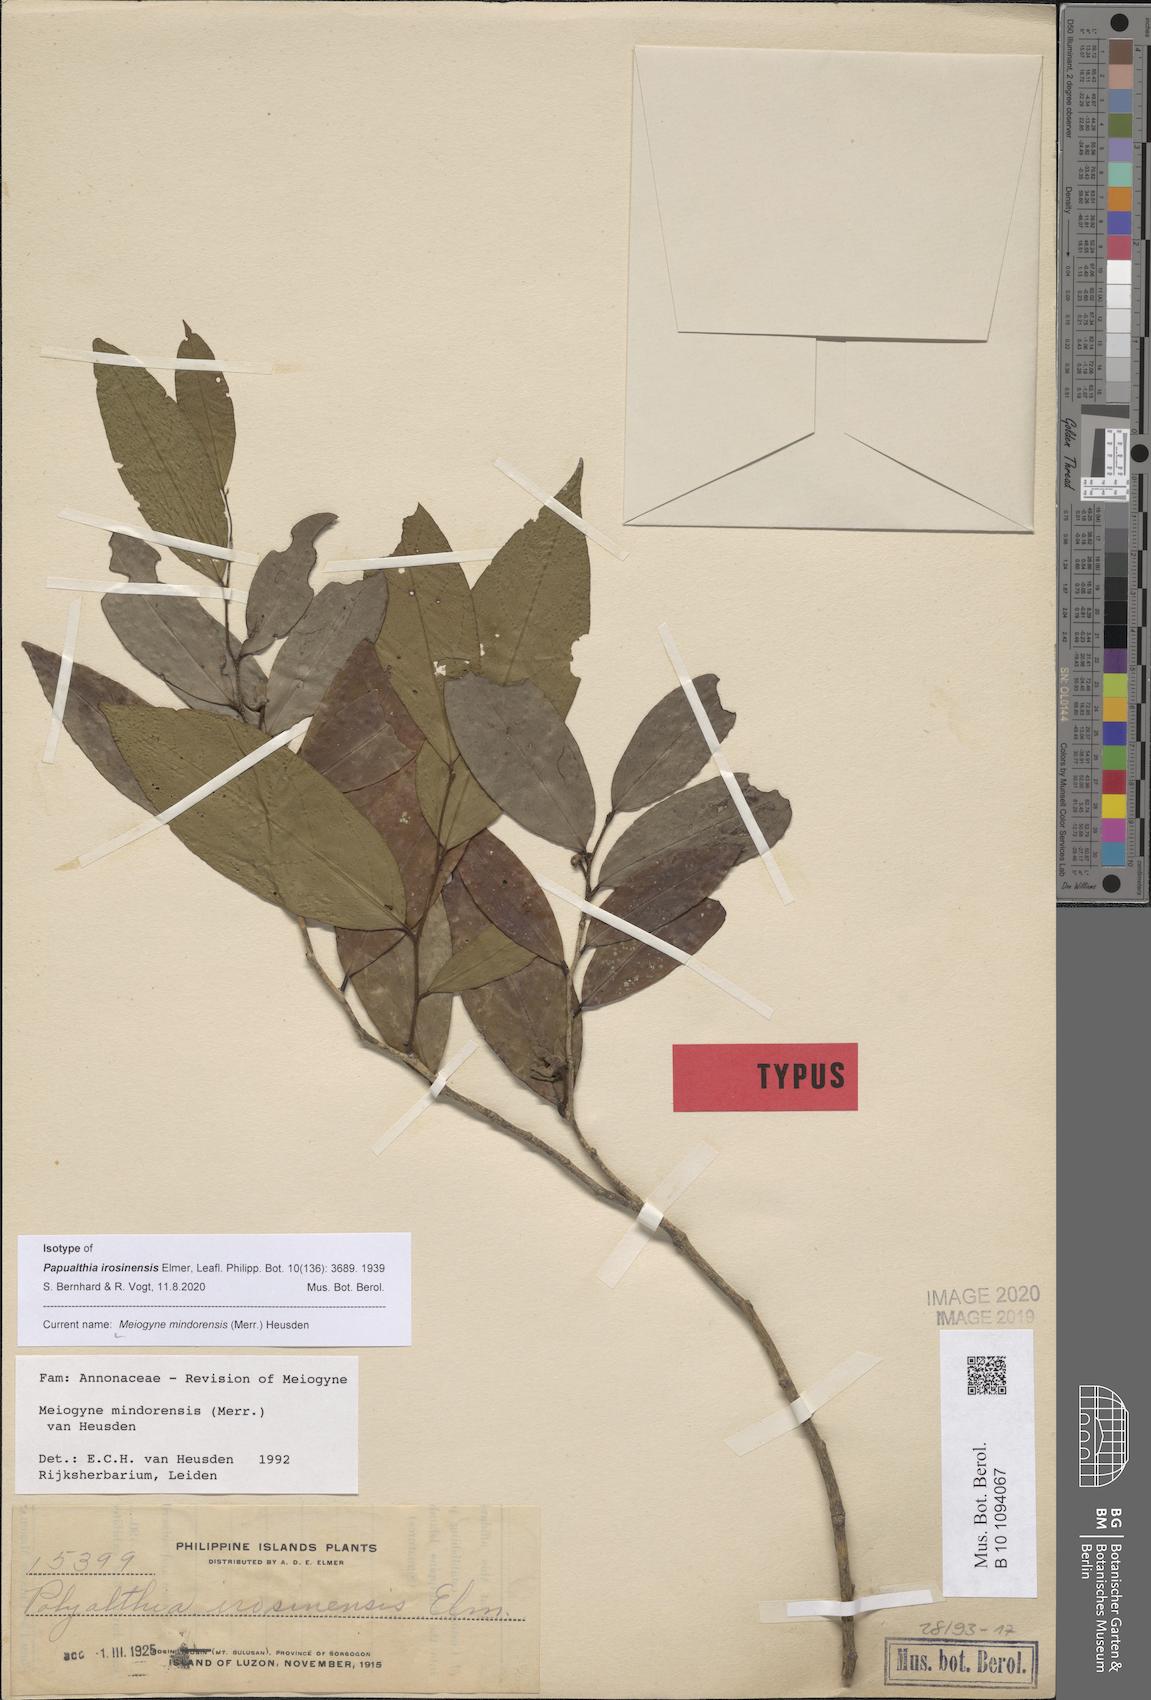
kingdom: Plantae
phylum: Tracheophyta
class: Magnoliopsida
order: Magnoliales
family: Annonaceae
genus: Meiogyne
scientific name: Meiogyne mindorensis
